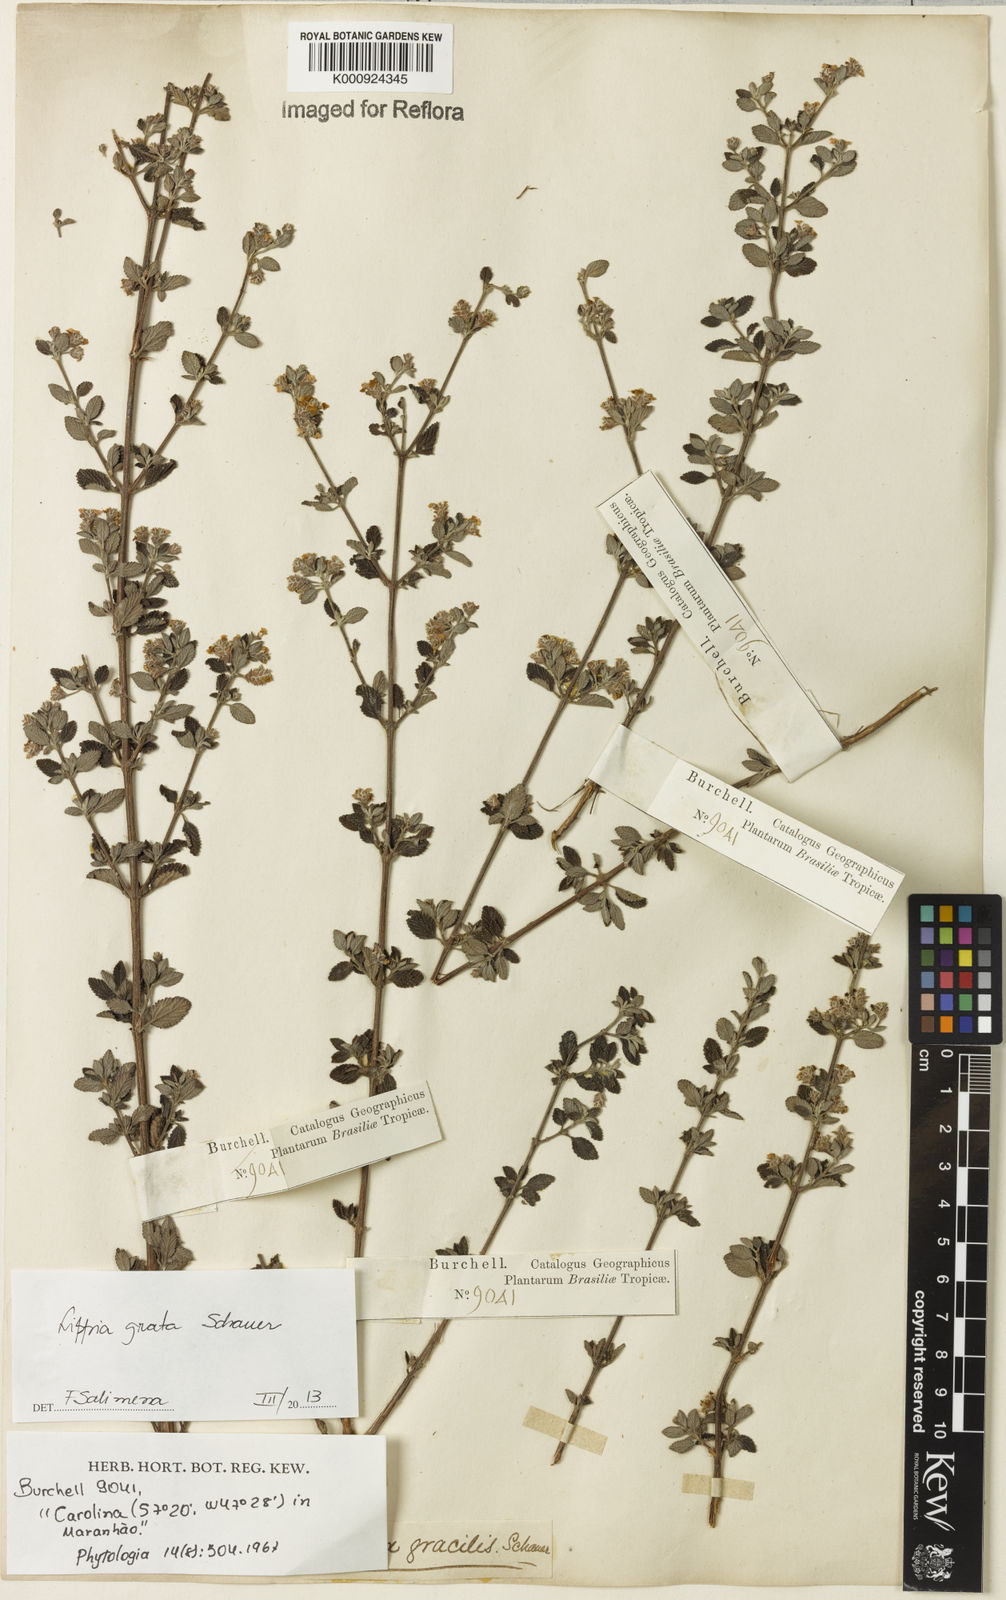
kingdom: Plantae
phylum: Tracheophyta
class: Magnoliopsida
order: Lamiales
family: Verbenaceae
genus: Lippia
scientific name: Lippia grata
